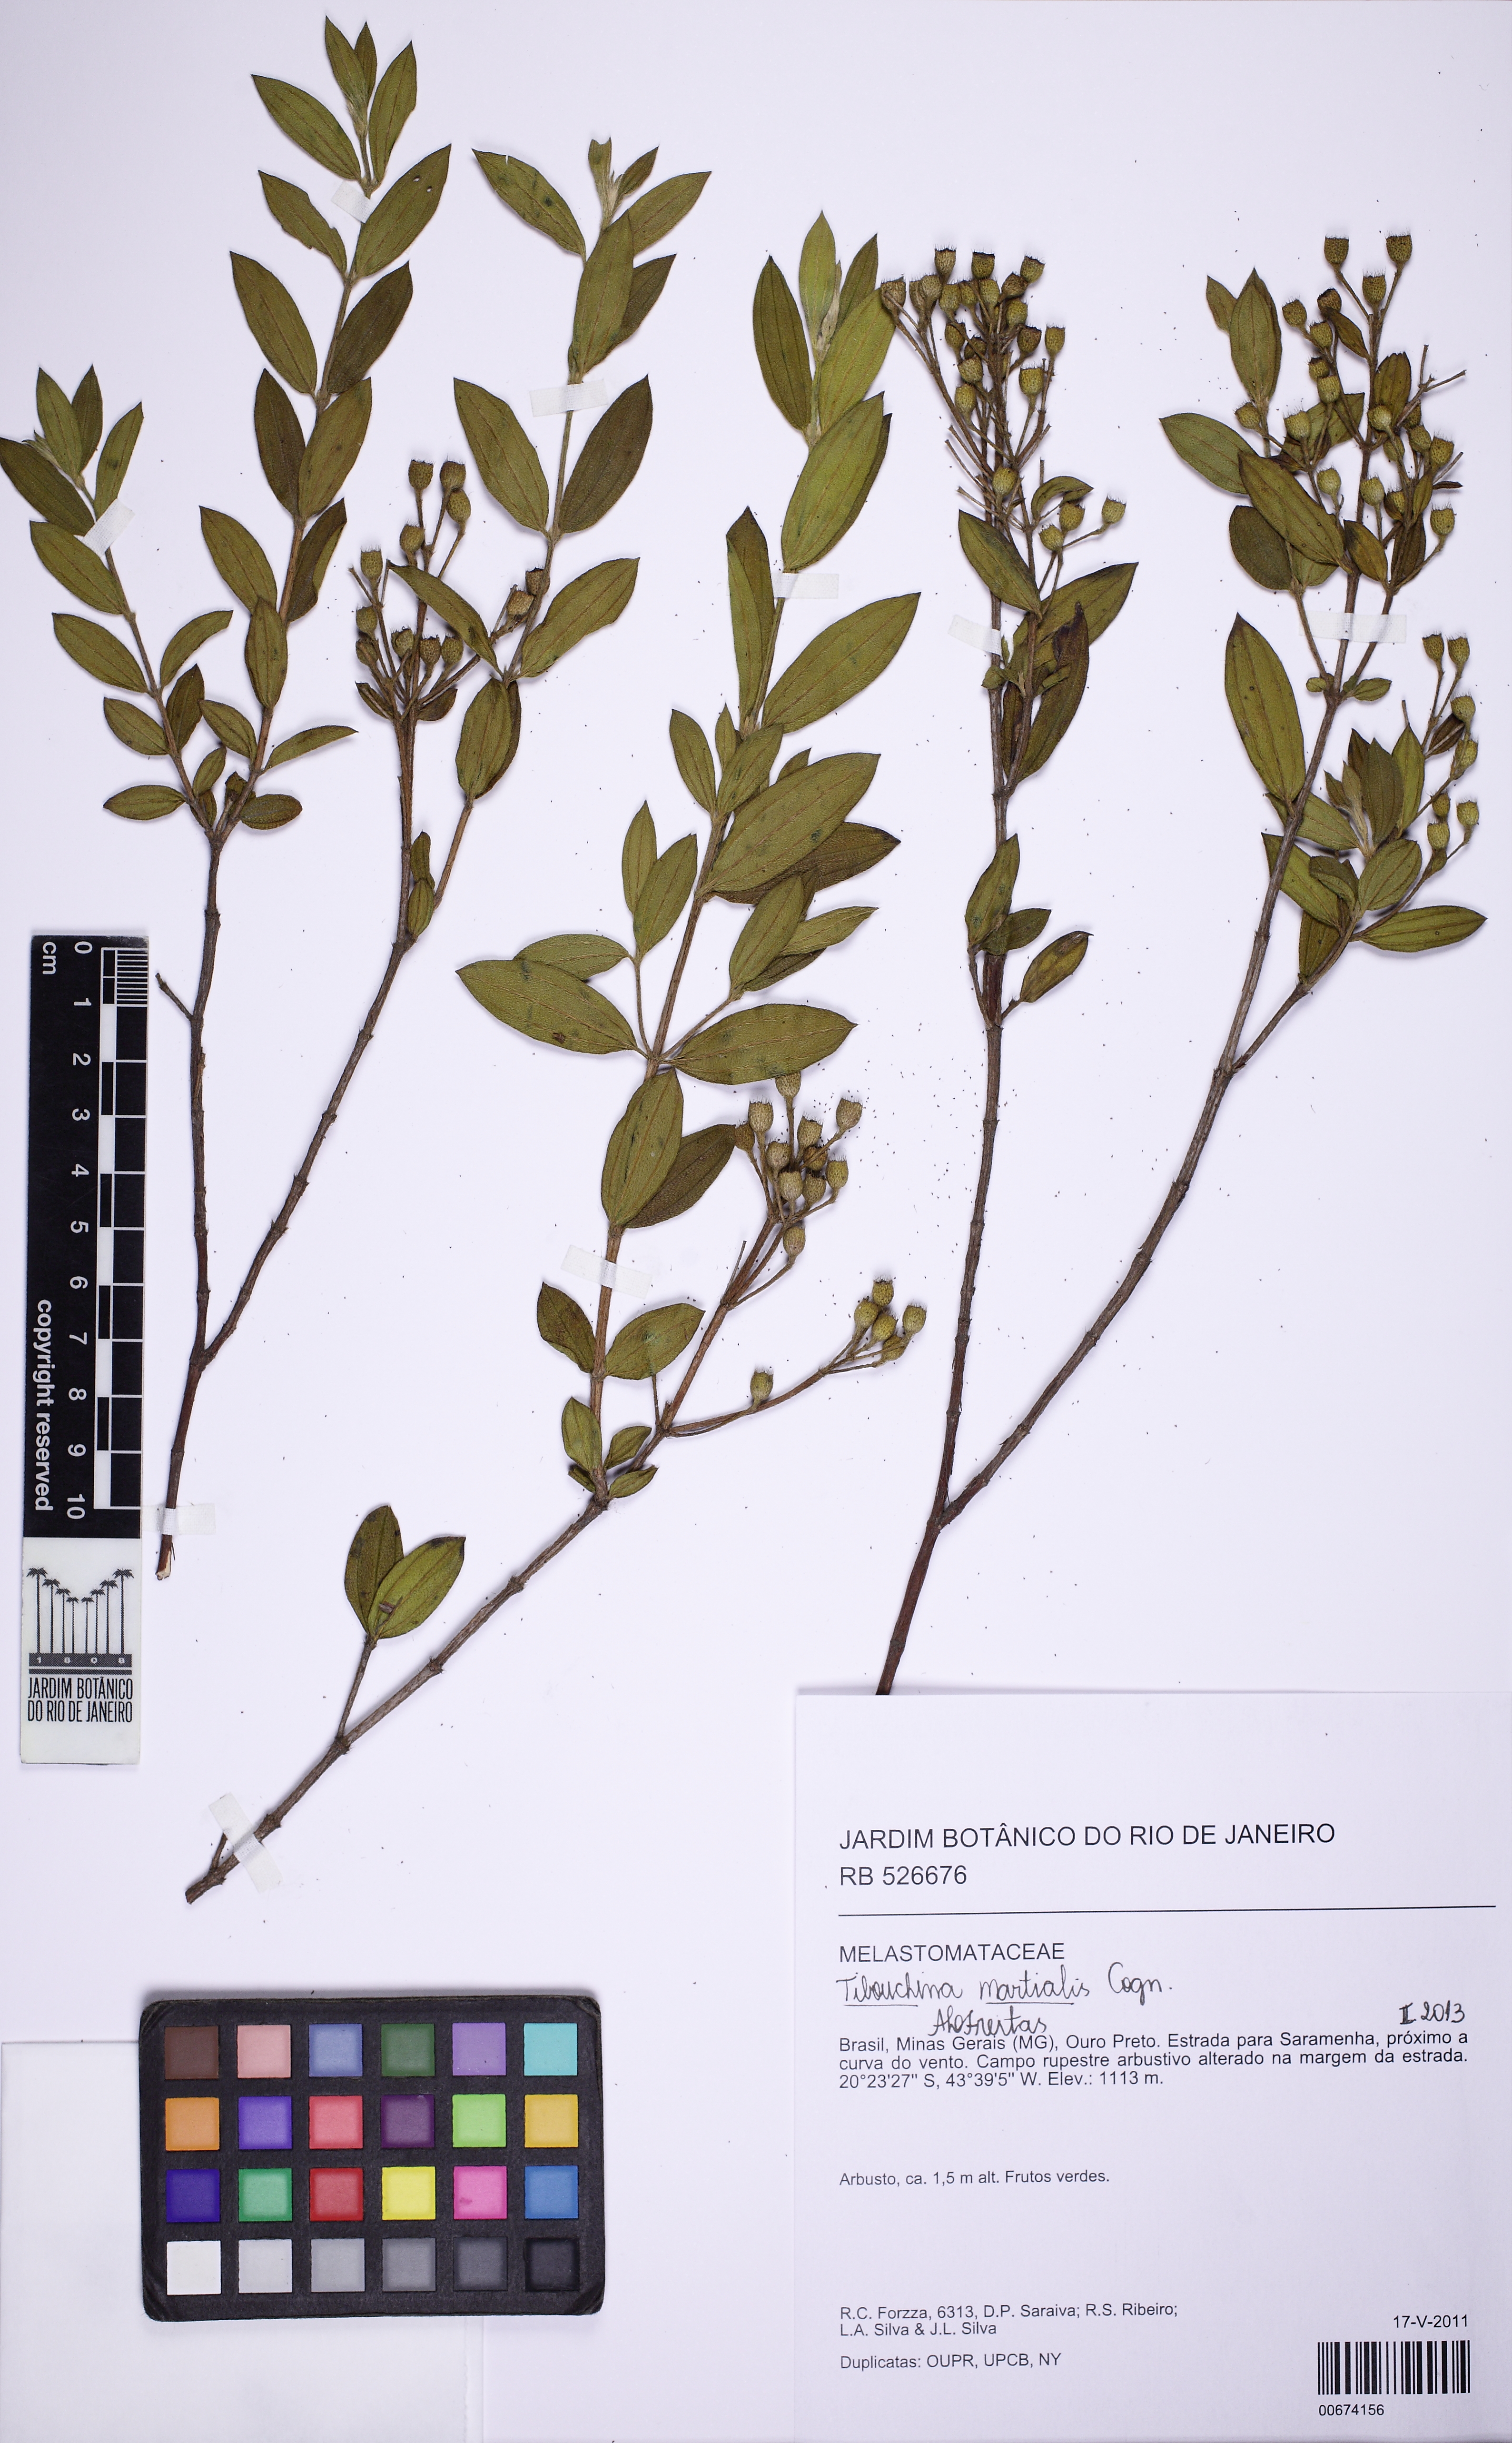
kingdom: Plantae
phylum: Tracheophyta
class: Magnoliopsida
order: Myrtales
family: Melastomataceae
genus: Pleroma
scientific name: Pleroma martiale
